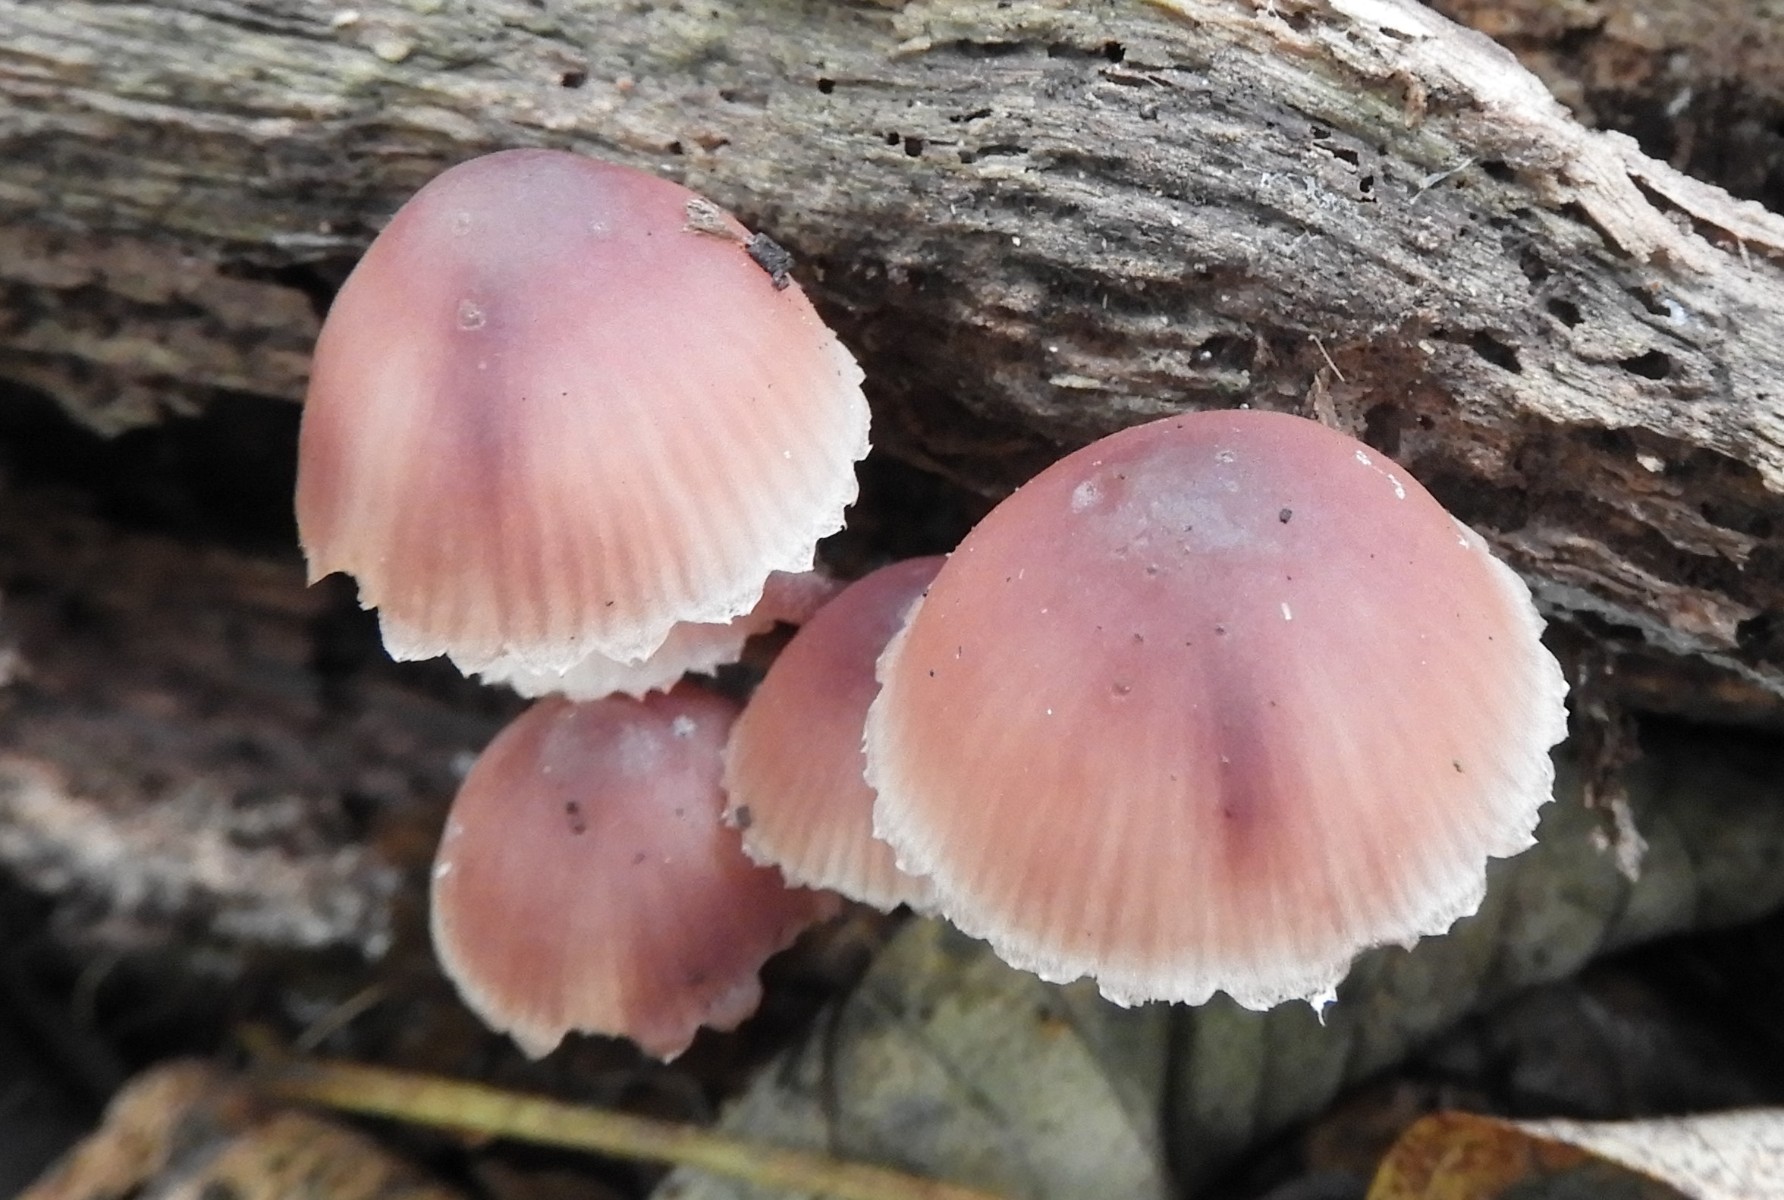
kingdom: Fungi
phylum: Basidiomycota
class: Agaricomycetes
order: Agaricales
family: Mycenaceae
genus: Mycena
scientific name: Mycena haematopus
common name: blødende huesvamp
